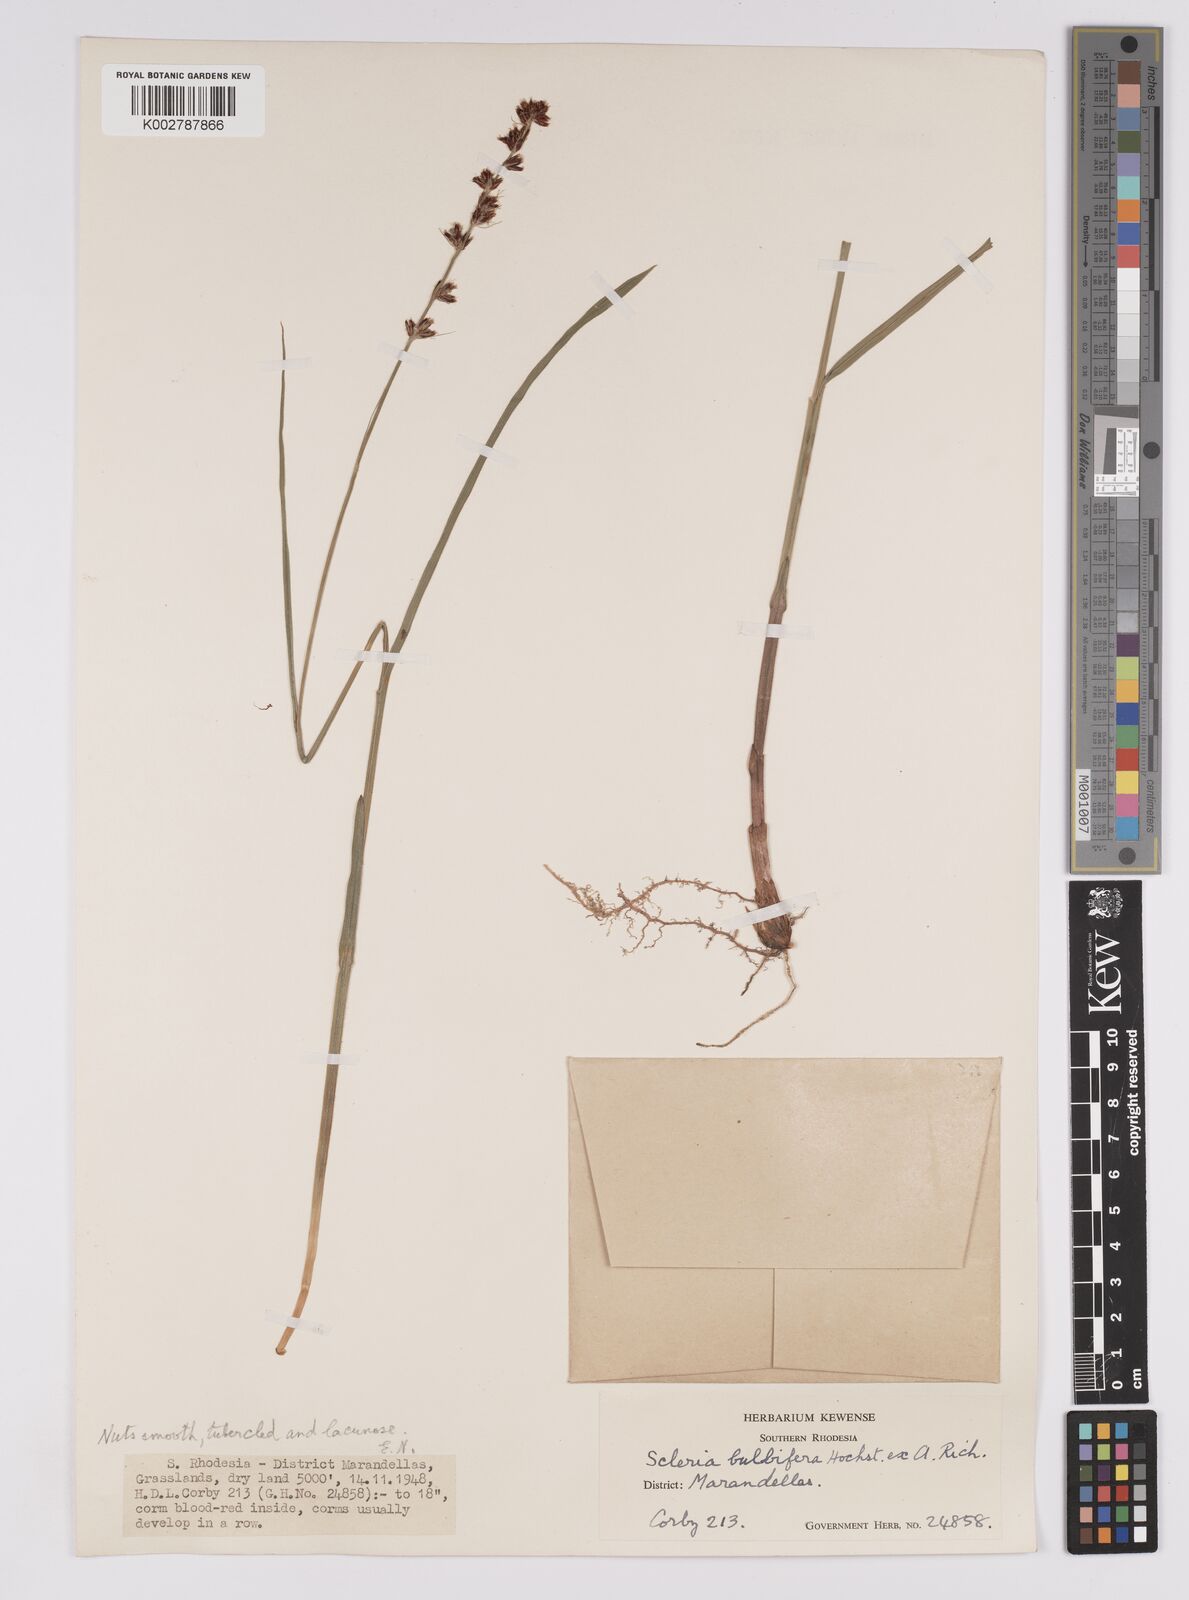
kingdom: Plantae
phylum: Tracheophyta
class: Liliopsida
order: Poales
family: Cyperaceae
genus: Scleria
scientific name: Scleria bulbifera
